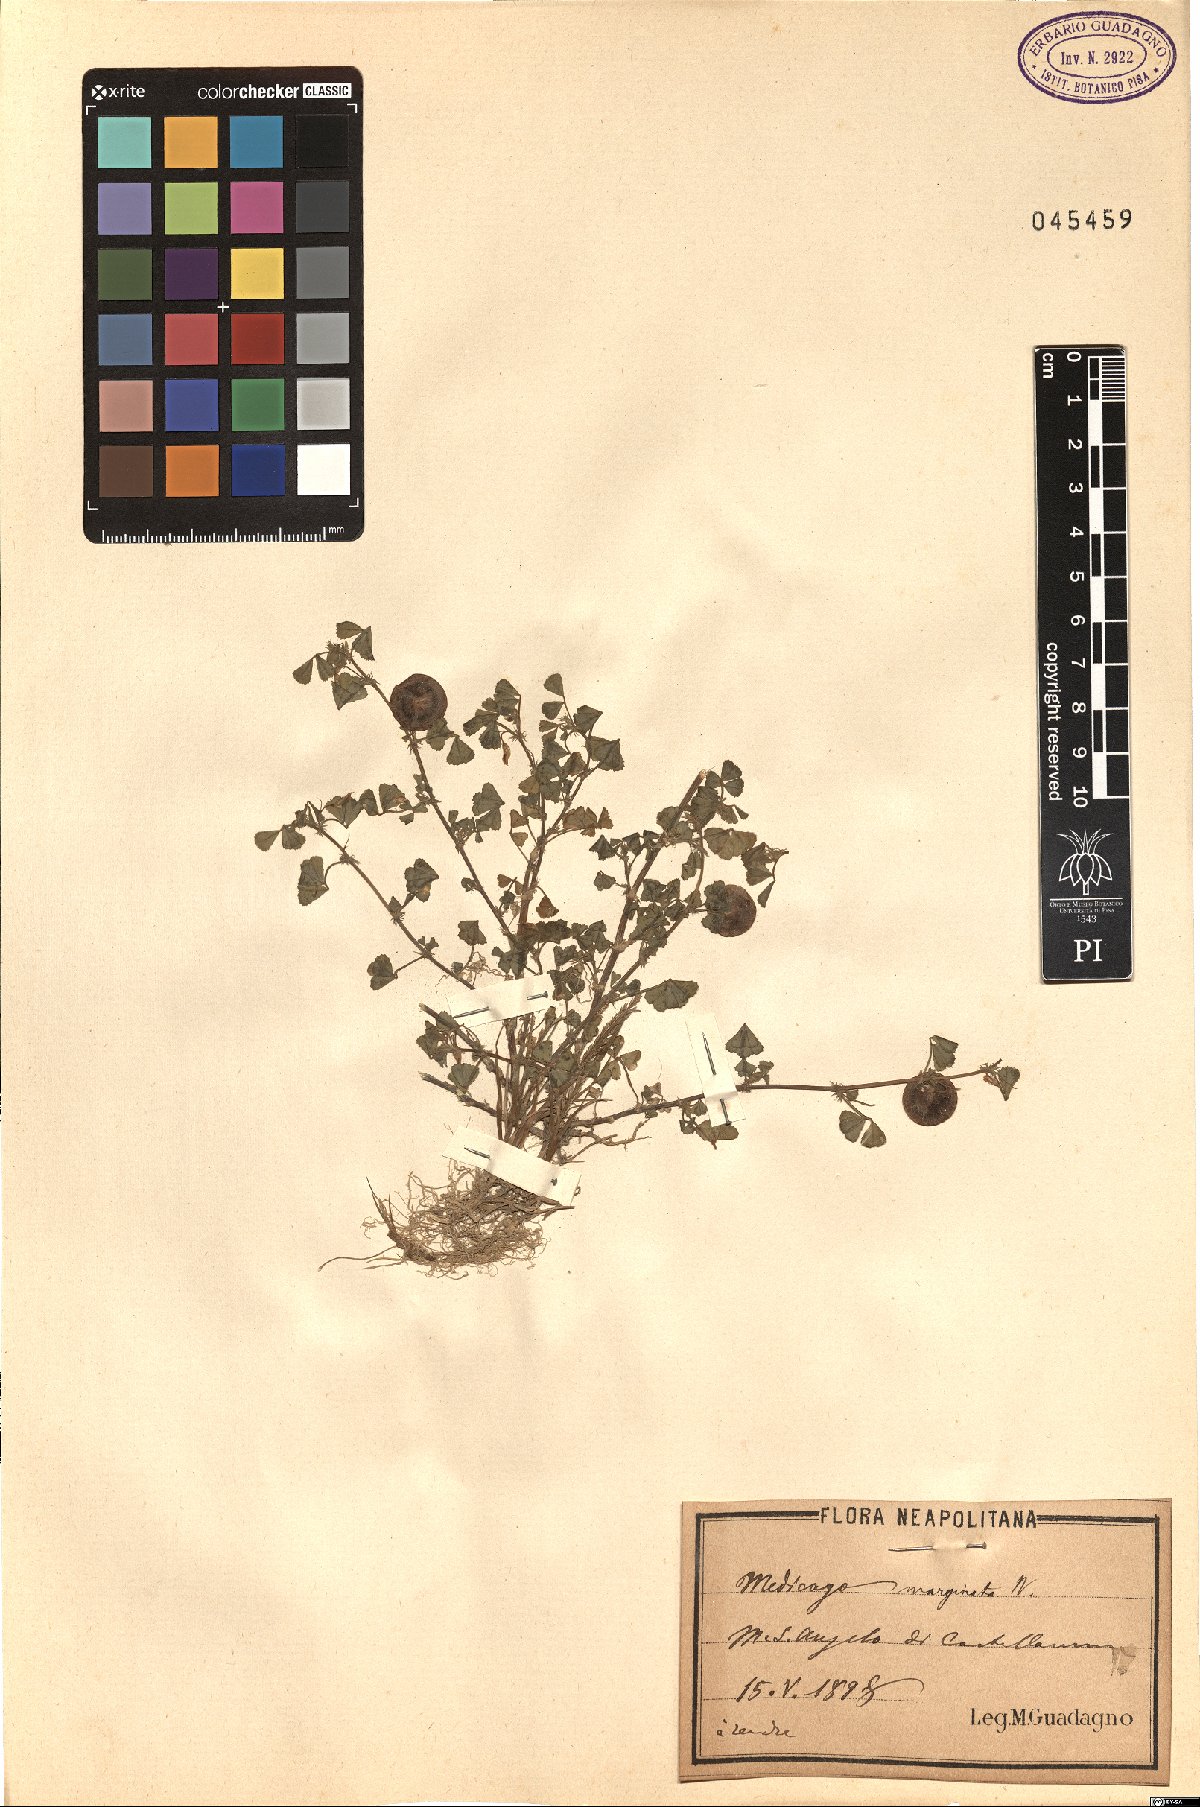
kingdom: Plantae
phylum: Tracheophyta
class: Magnoliopsida
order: Fabales
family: Fabaceae
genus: Medicago
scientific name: Medicago orbicularis
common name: Button medick
